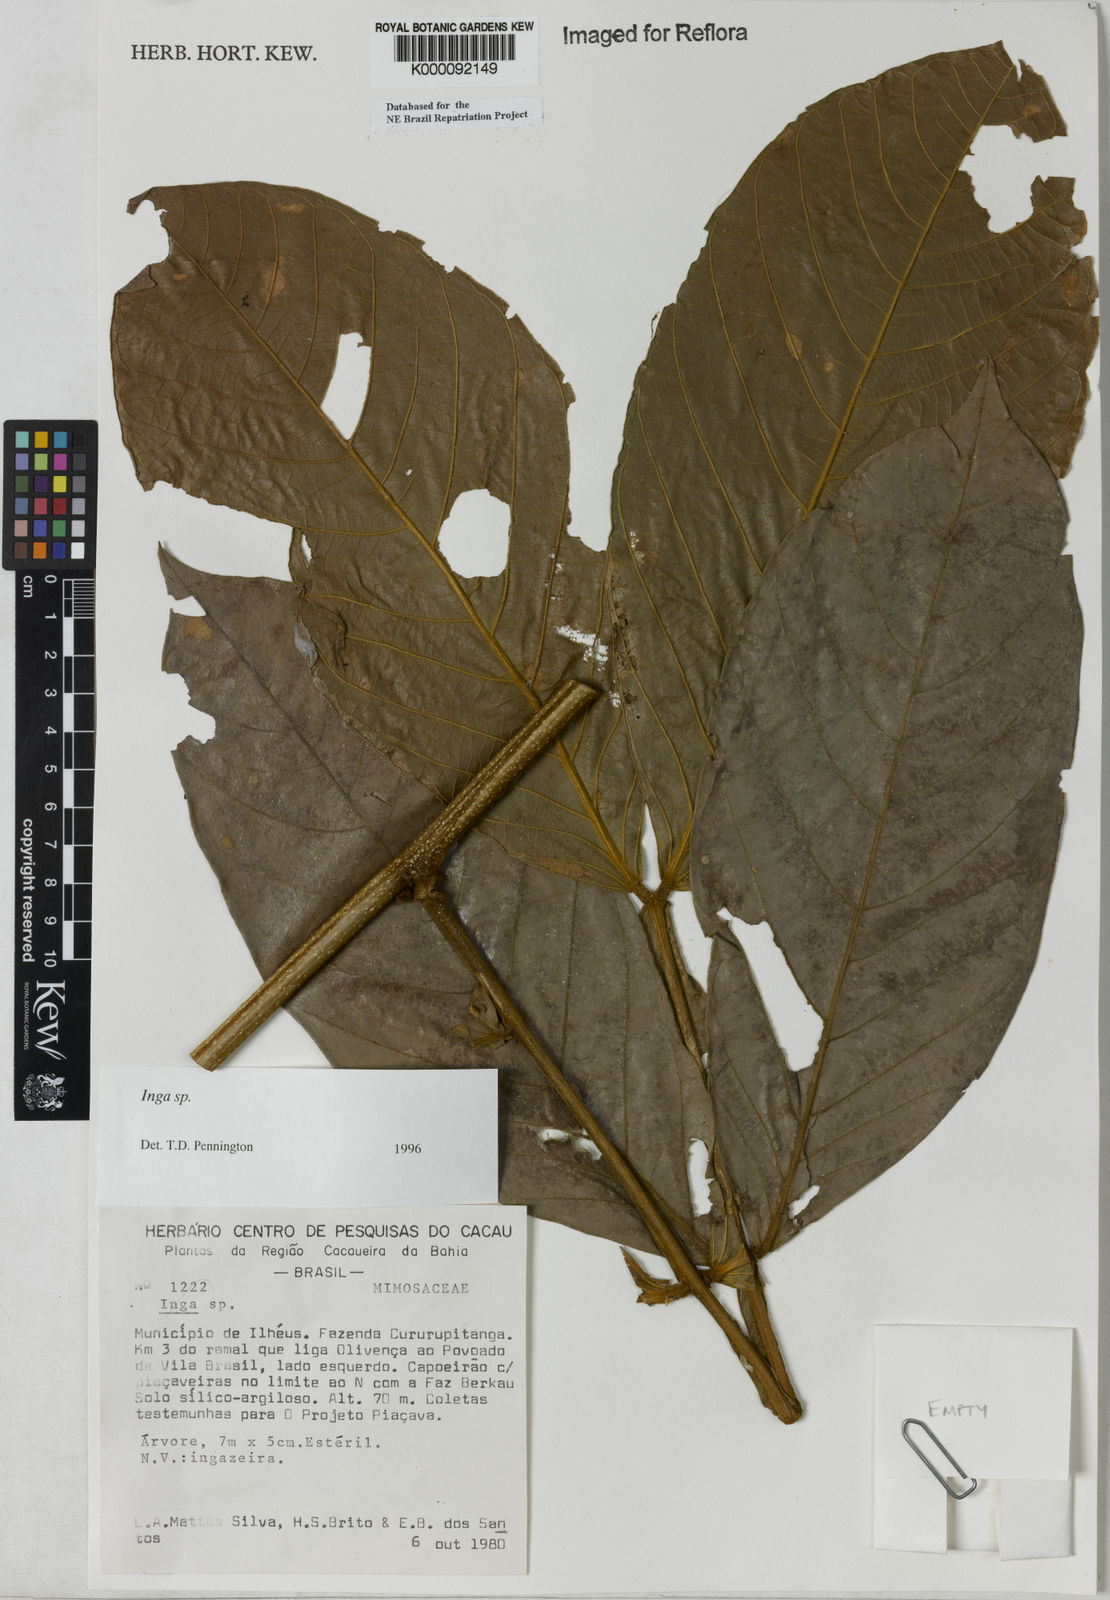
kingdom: Plantae
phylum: Tracheophyta
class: Magnoliopsida
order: Fabales
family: Fabaceae
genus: Inga
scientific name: Inga
